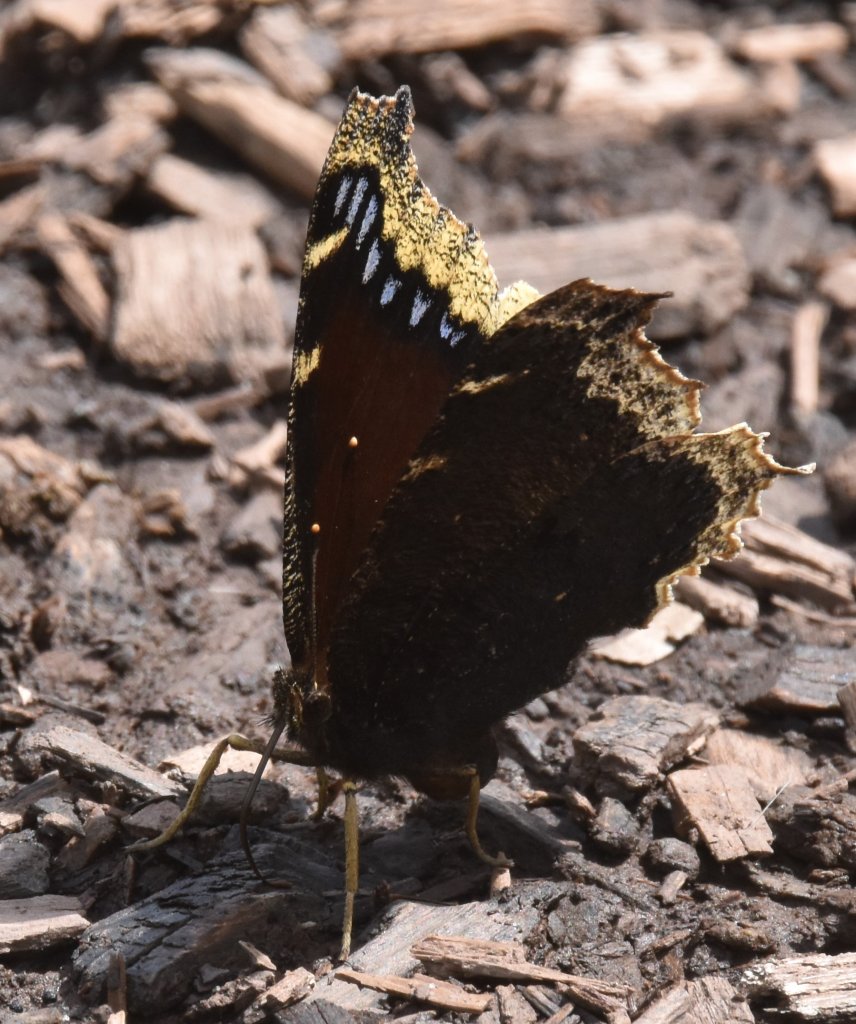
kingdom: Animalia
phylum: Arthropoda
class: Insecta
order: Lepidoptera
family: Nymphalidae
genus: Nymphalis
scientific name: Nymphalis antiopa
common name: Mourning Cloak
